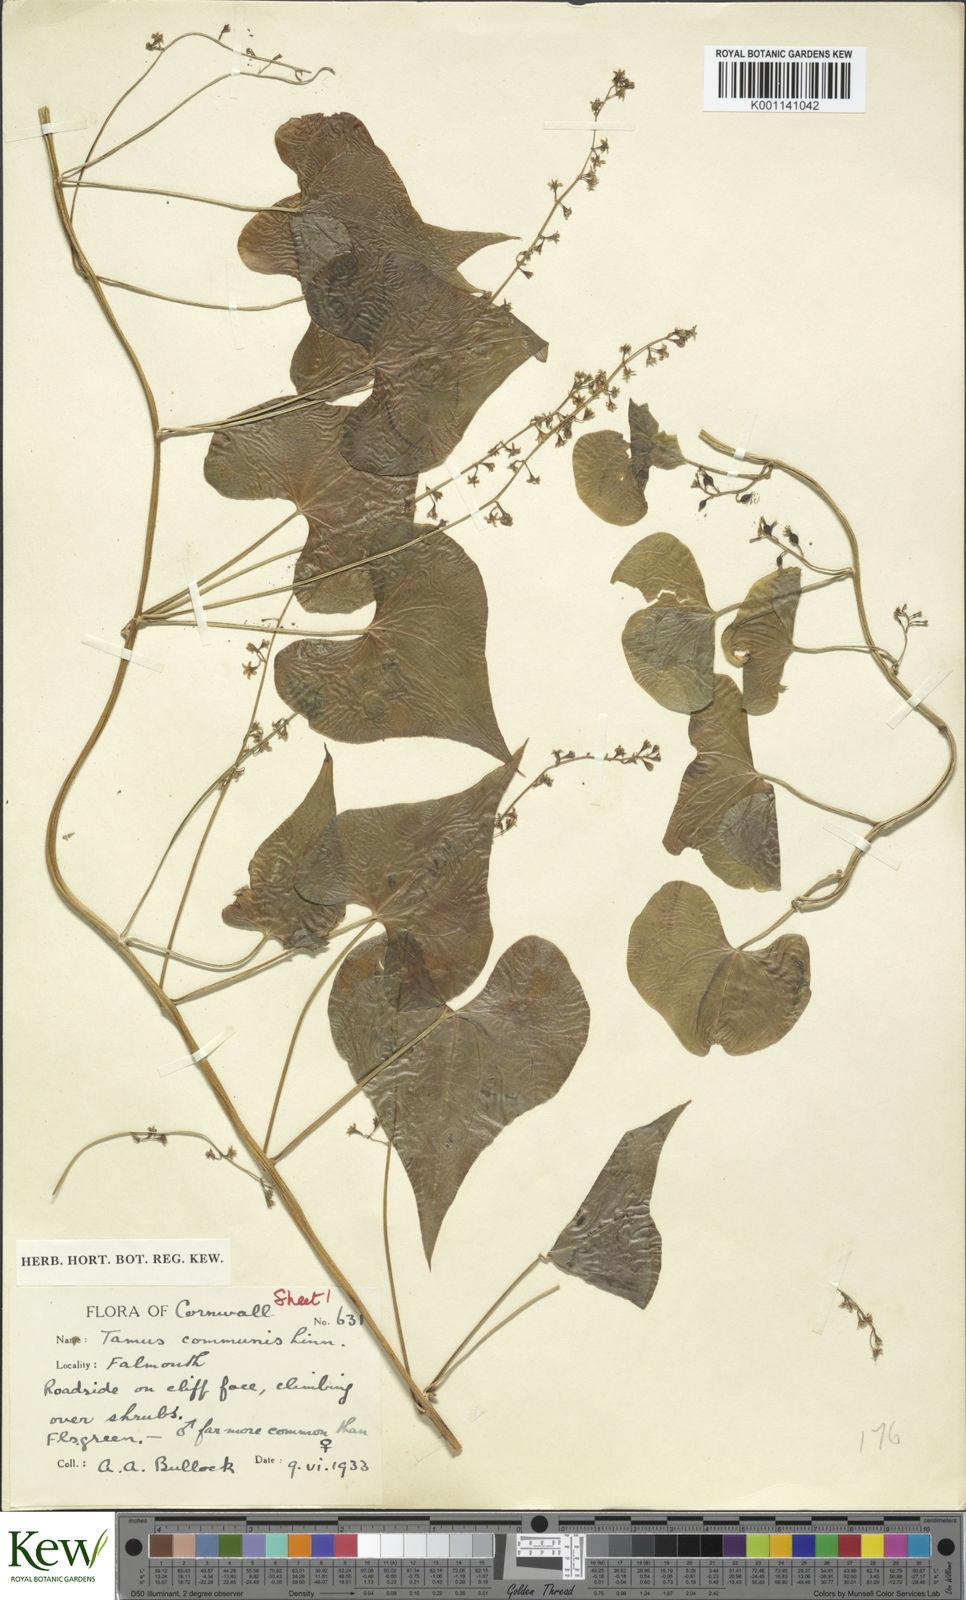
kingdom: Plantae
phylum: Tracheophyta
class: Liliopsida
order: Dioscoreales
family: Dioscoreaceae
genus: Dioscorea
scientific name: Dioscorea communis
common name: Black-bindweed
